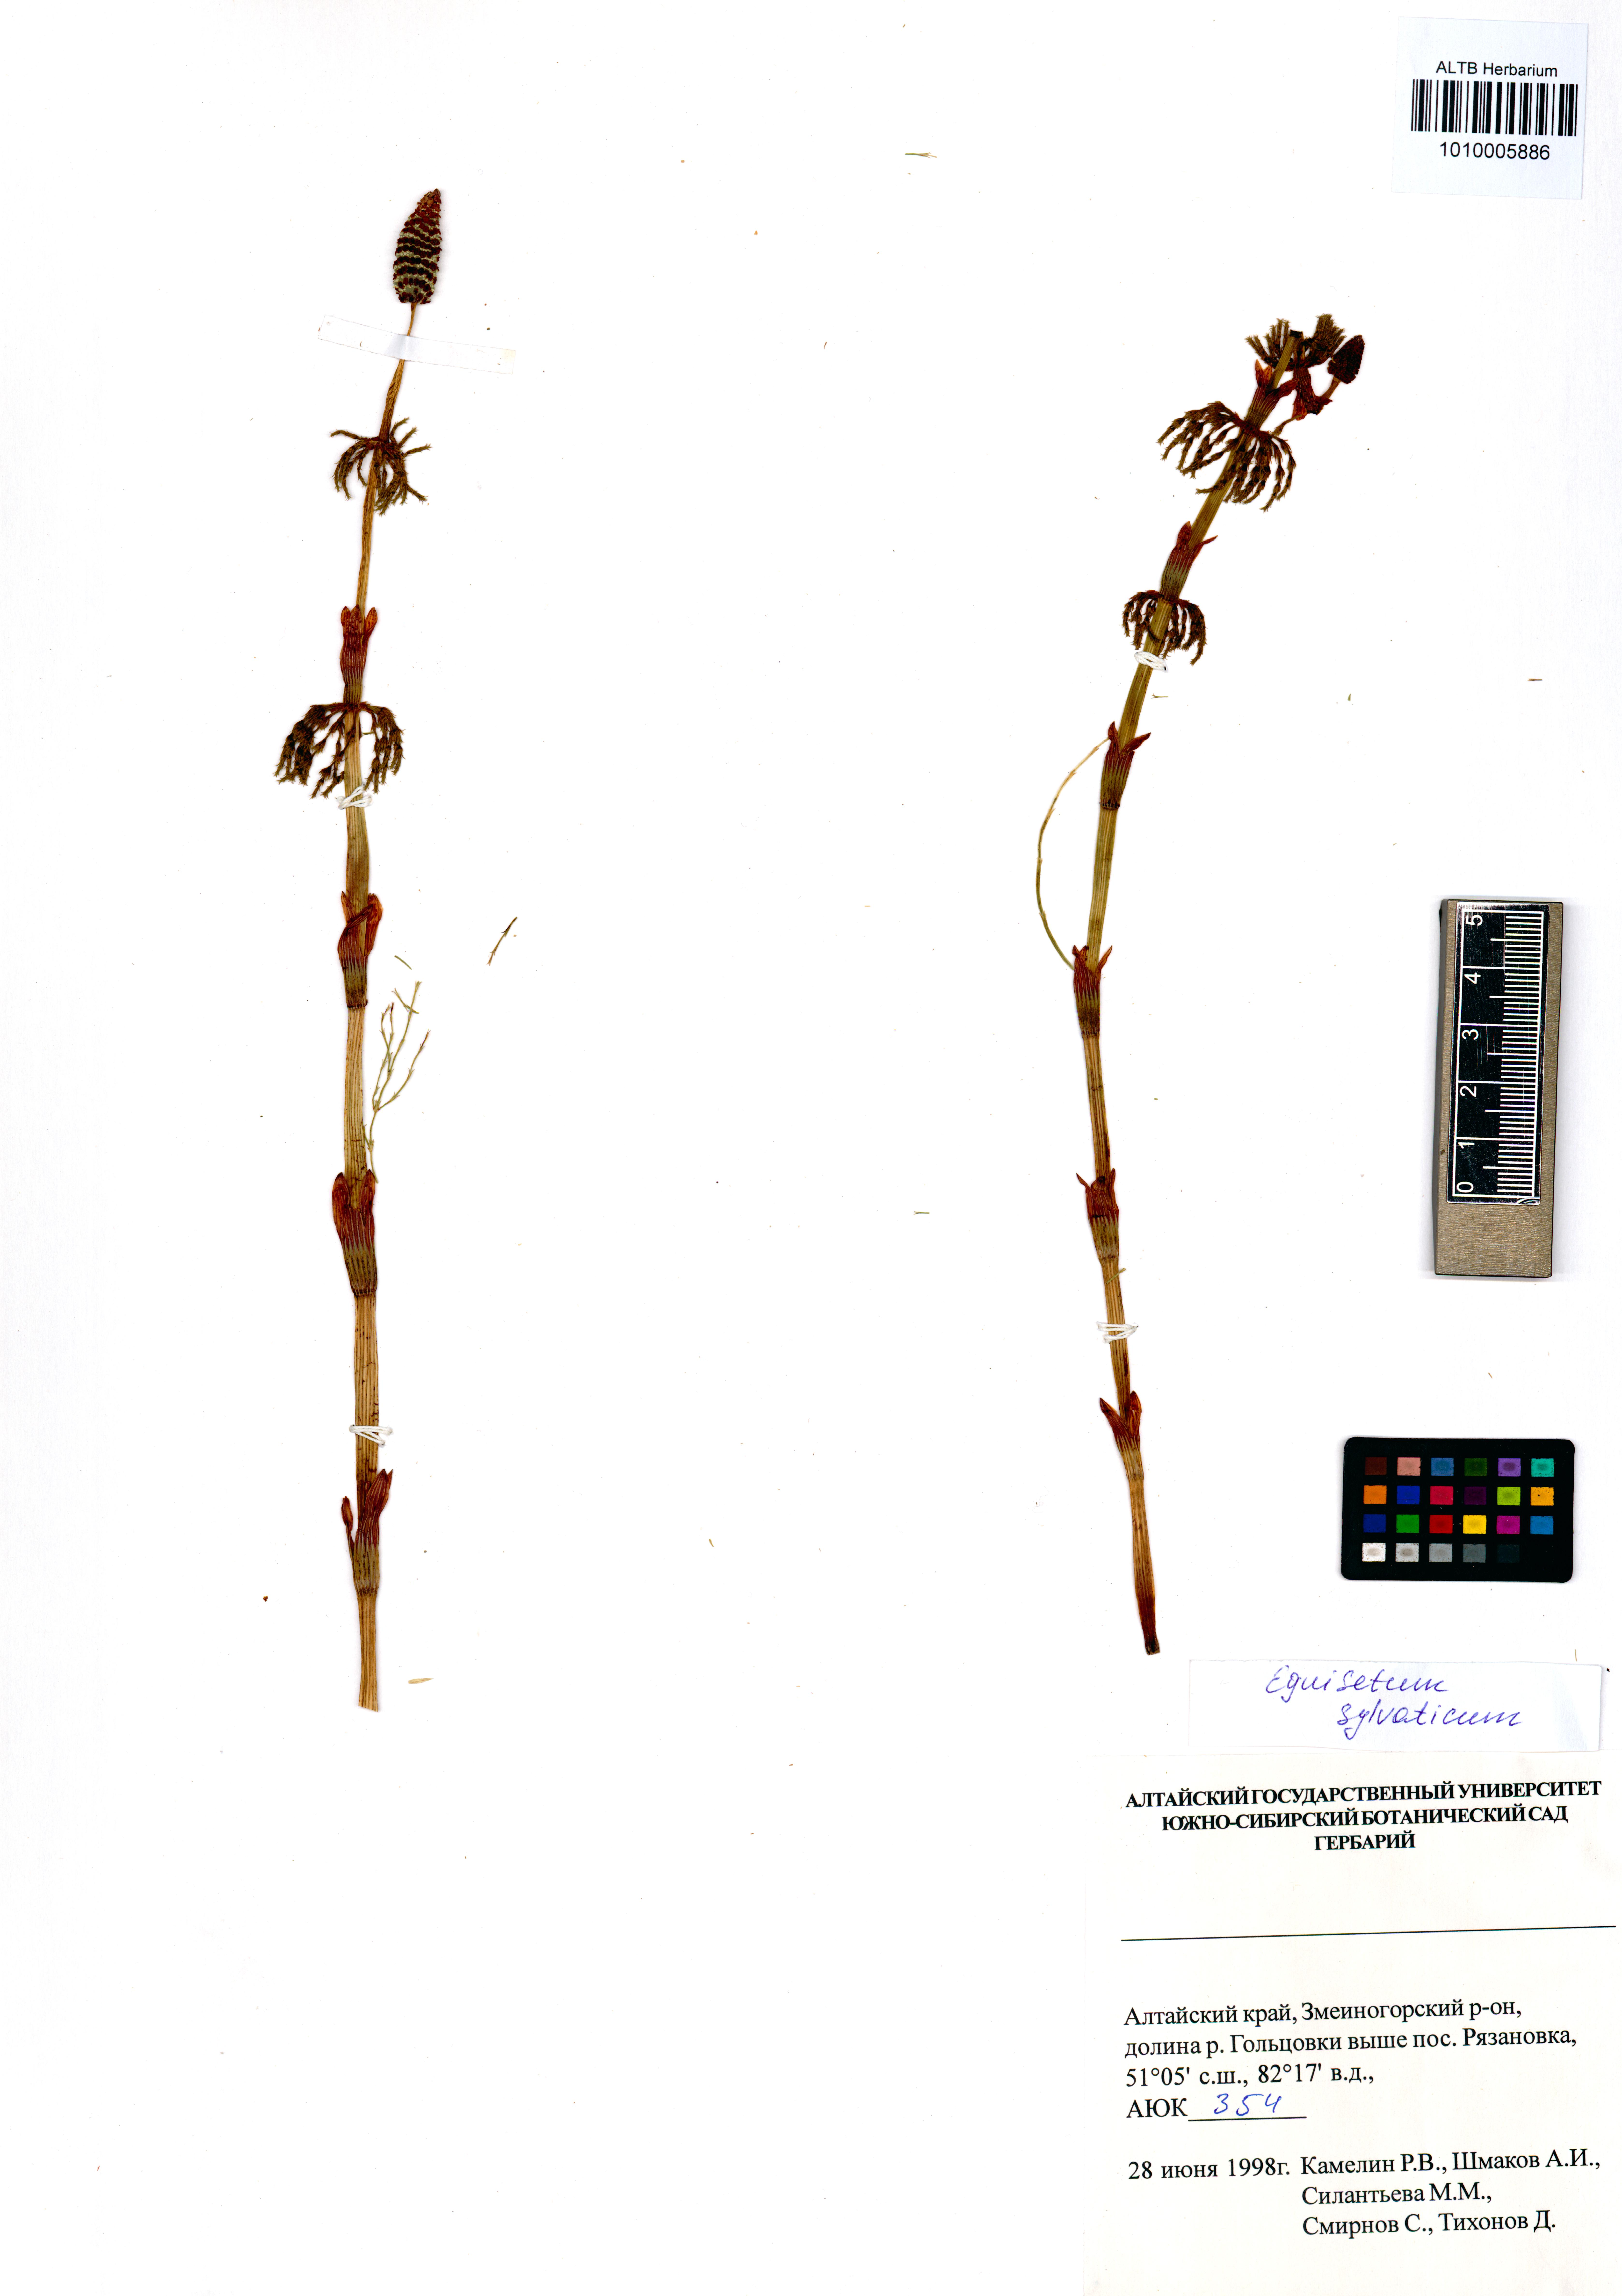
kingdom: Plantae
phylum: Tracheophyta
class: Polypodiopsida
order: Equisetales
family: Equisetaceae
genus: Equisetum
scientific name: Equisetum sylvaticum
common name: Wood horsetail
